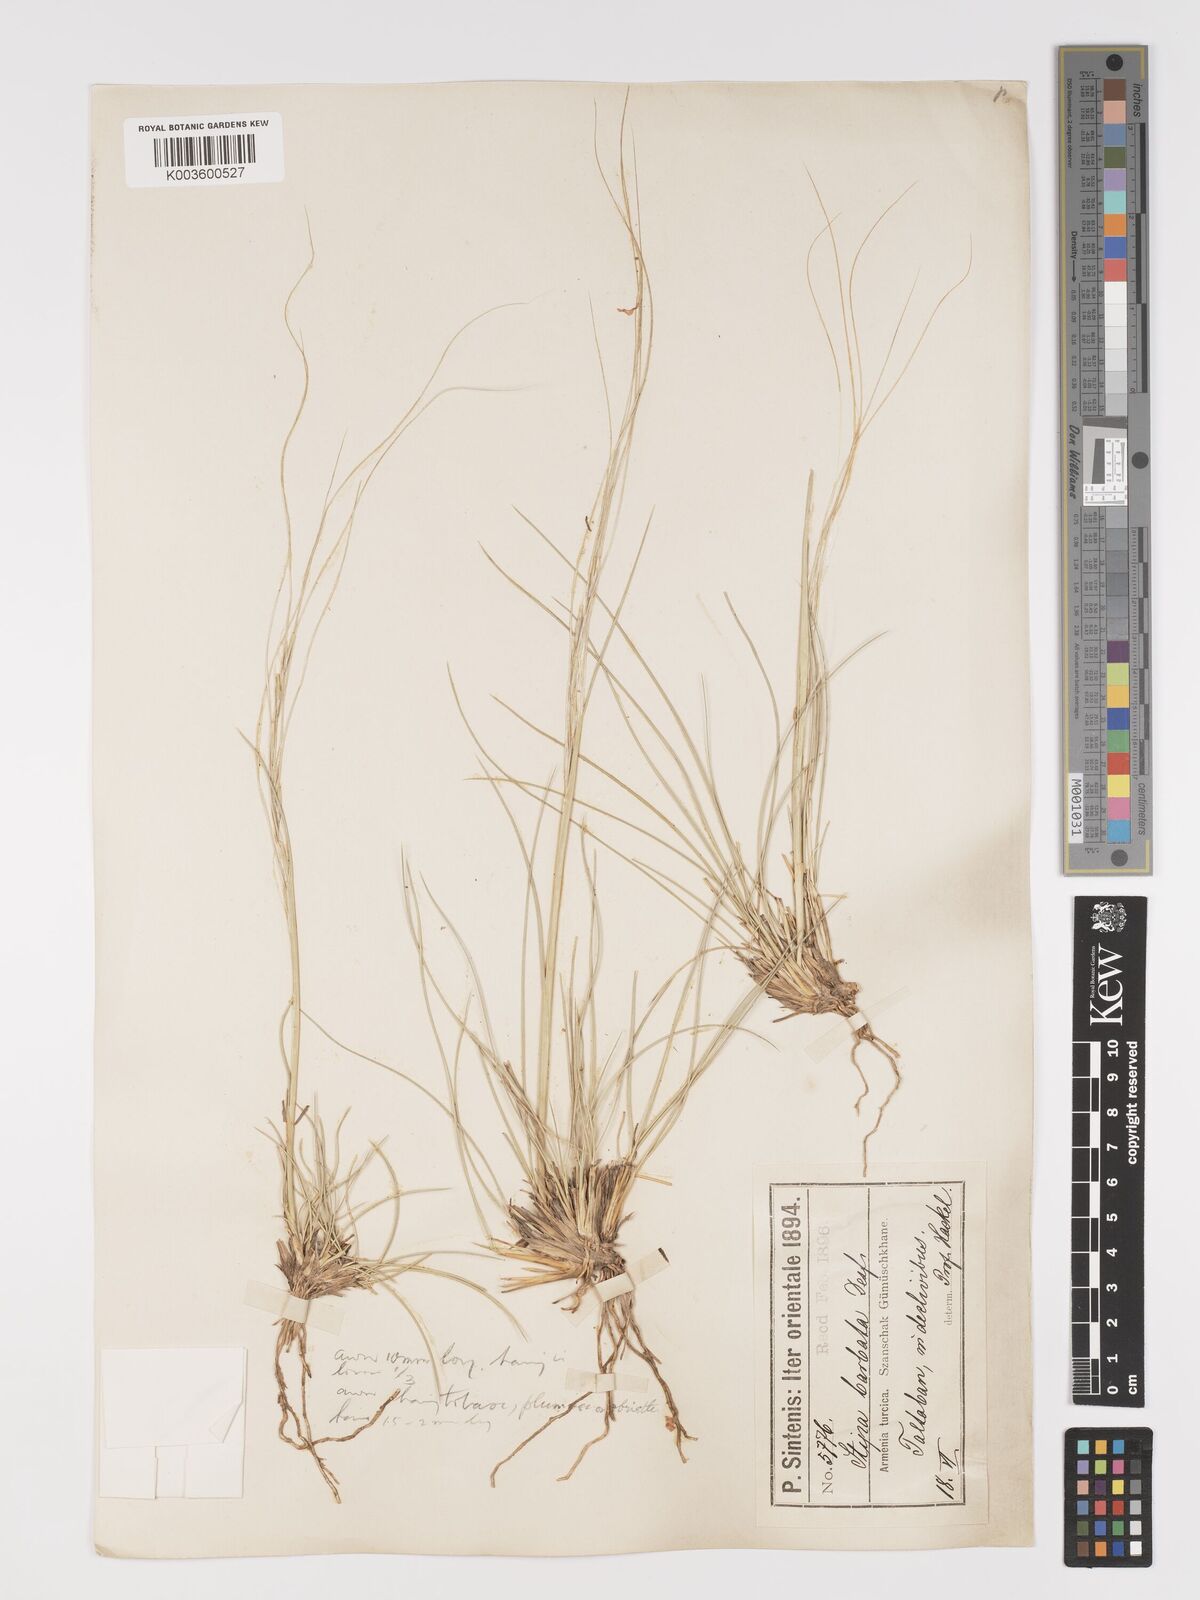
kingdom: Plantae
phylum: Tracheophyta
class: Liliopsida
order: Poales
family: Poaceae
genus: Stipa
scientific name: Stipa barbata
